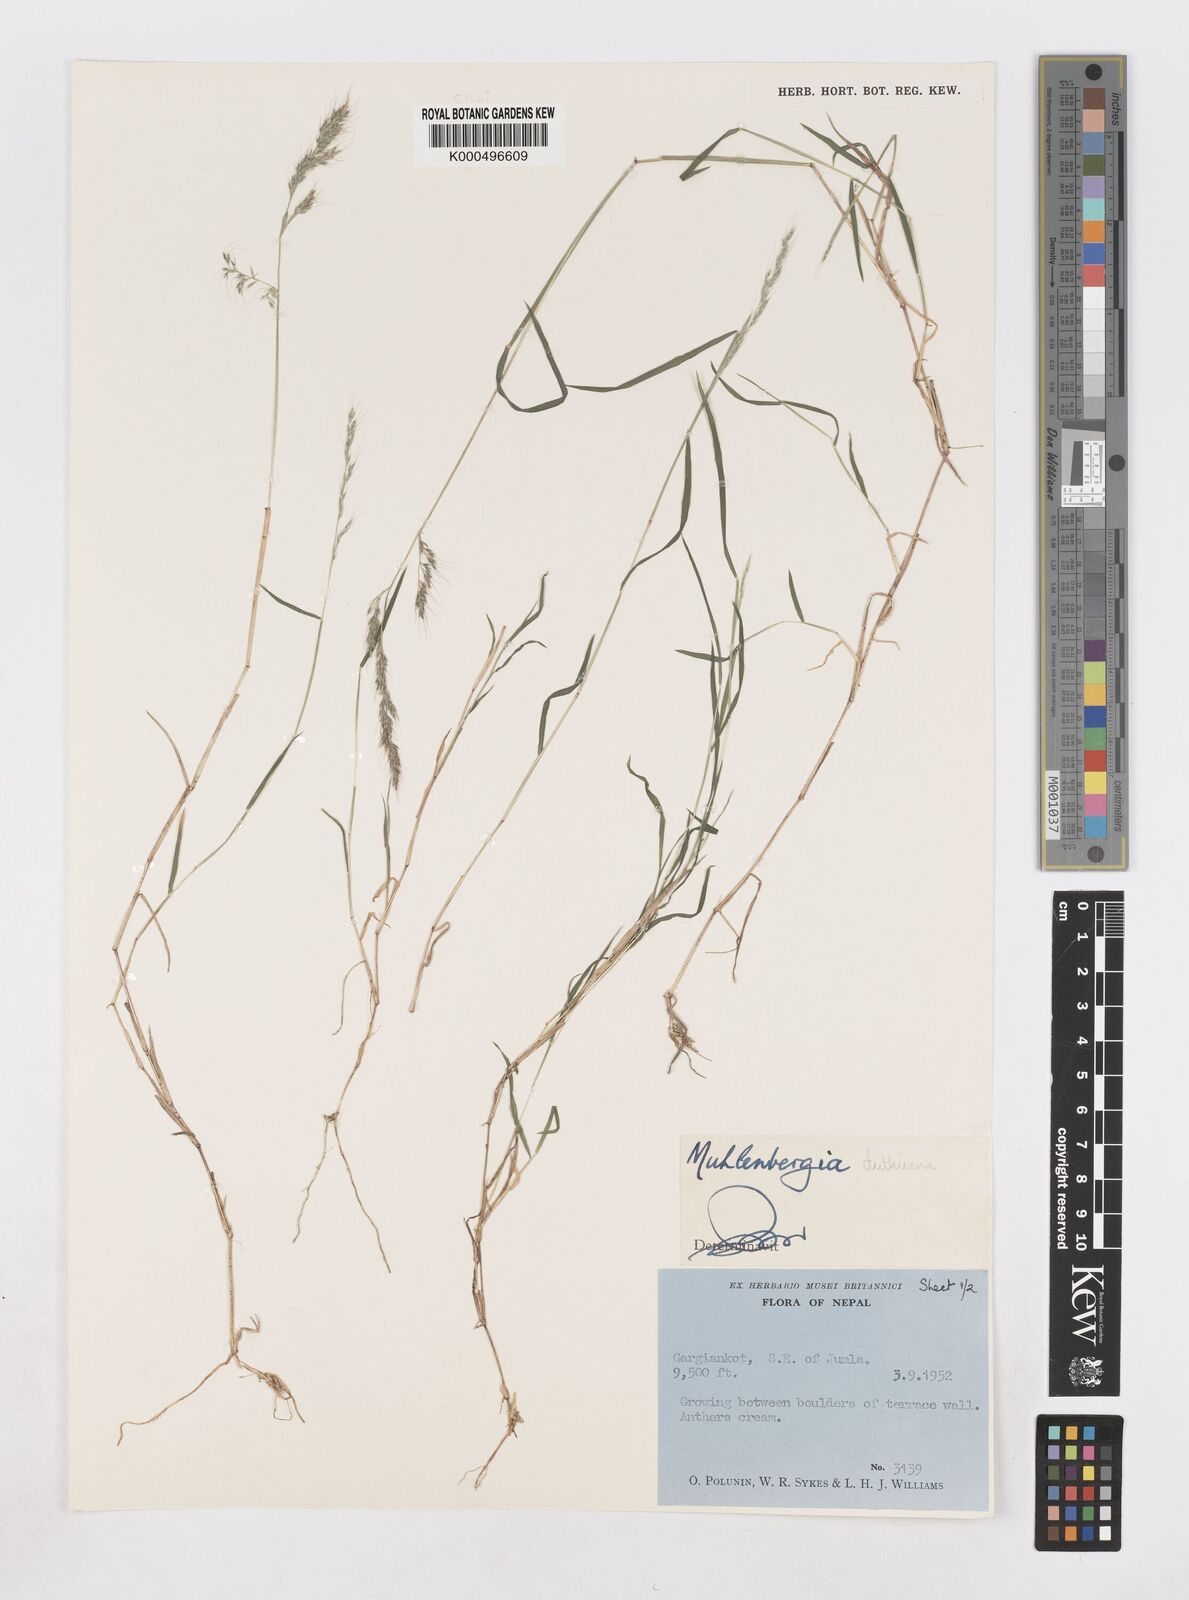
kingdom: Plantae
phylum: Tracheophyta
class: Liliopsida
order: Poales
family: Poaceae
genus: Muhlenbergia
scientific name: Muhlenbergia duthieana
